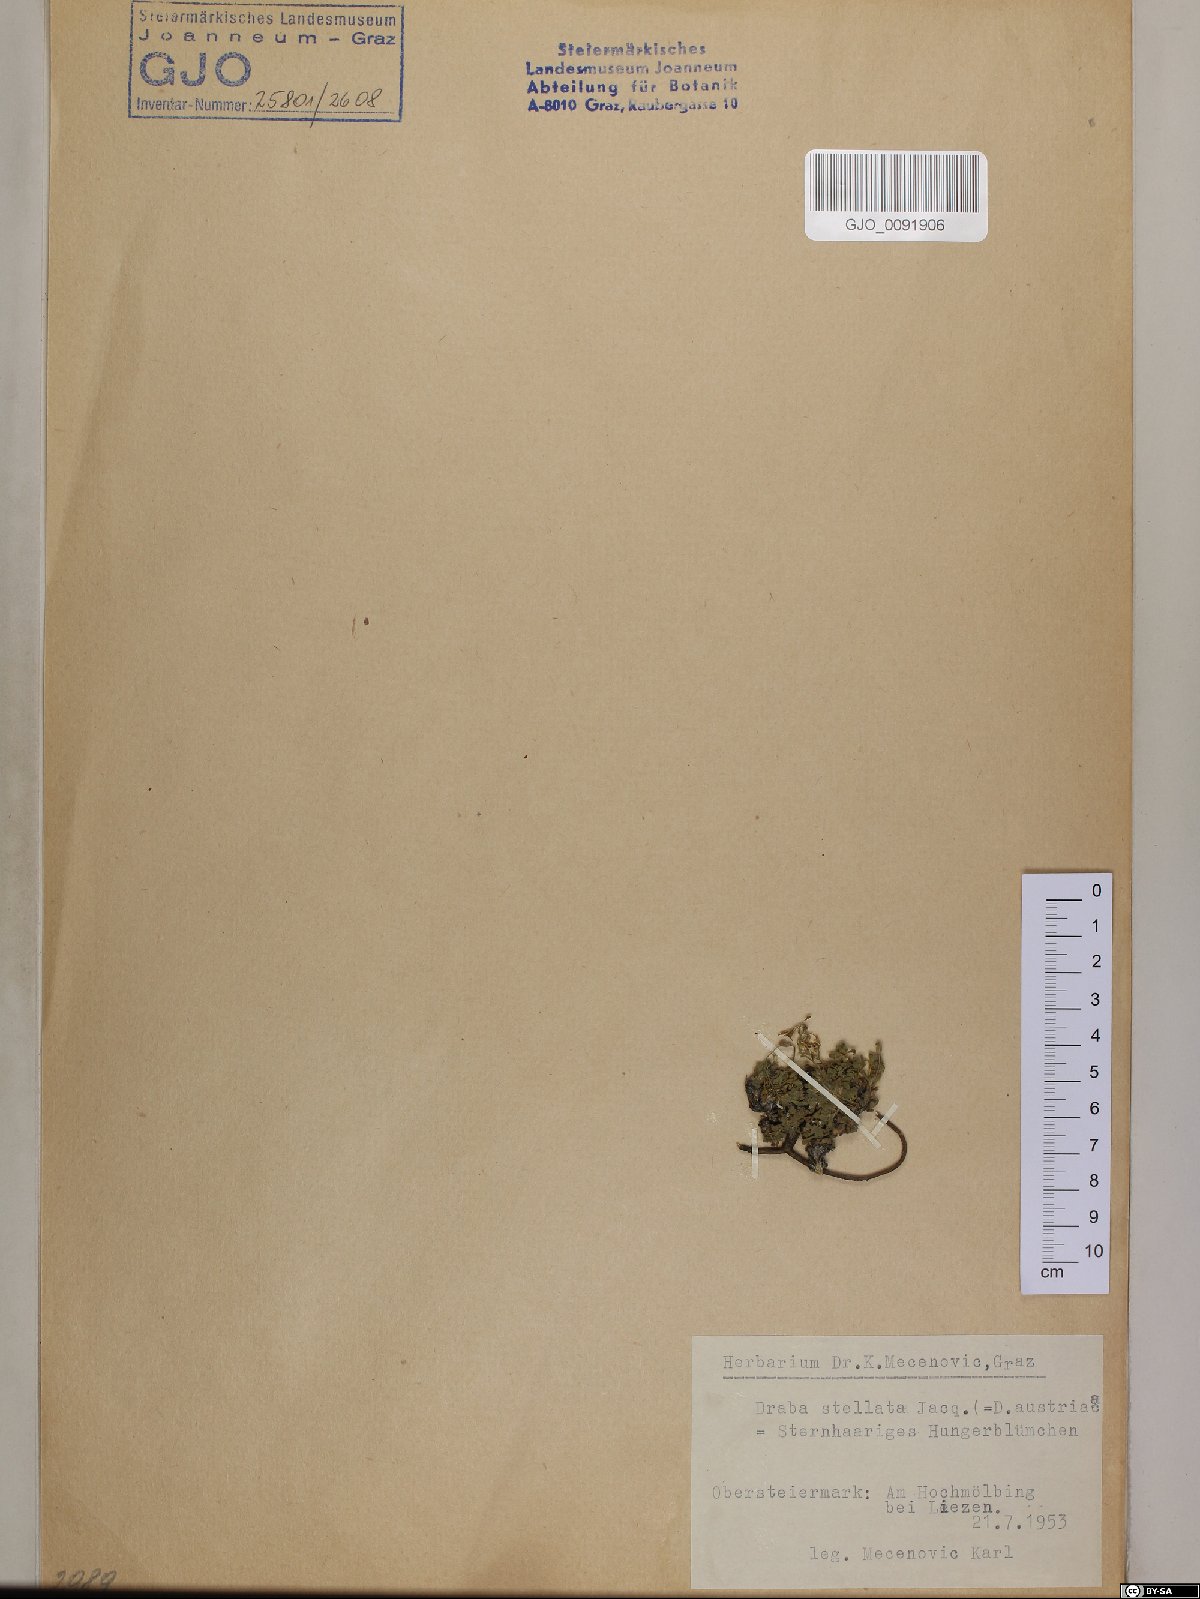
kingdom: Plantae
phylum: Tracheophyta
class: Magnoliopsida
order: Brassicales
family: Brassicaceae
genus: Draba
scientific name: Draba stellata
